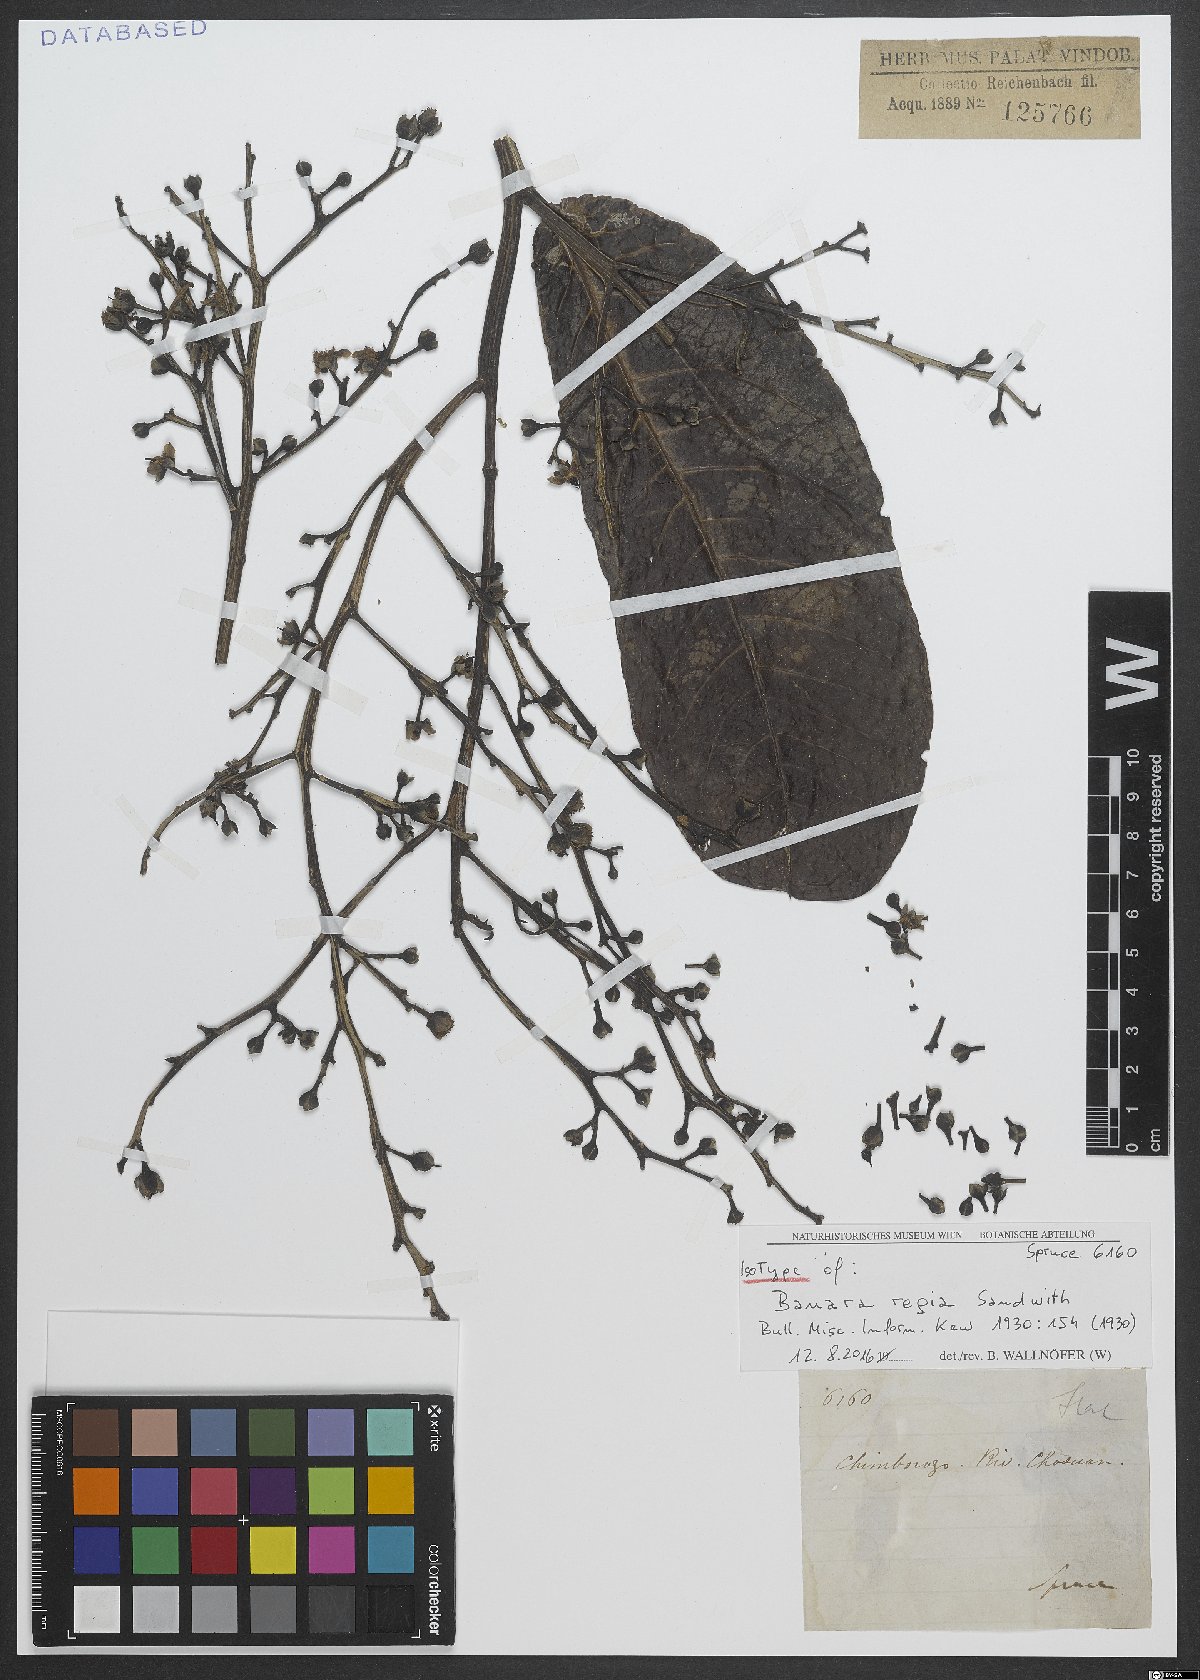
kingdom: Plantae
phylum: Tracheophyta
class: Magnoliopsida
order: Malpighiales
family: Salicaceae
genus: Banara
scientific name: Banara regia
